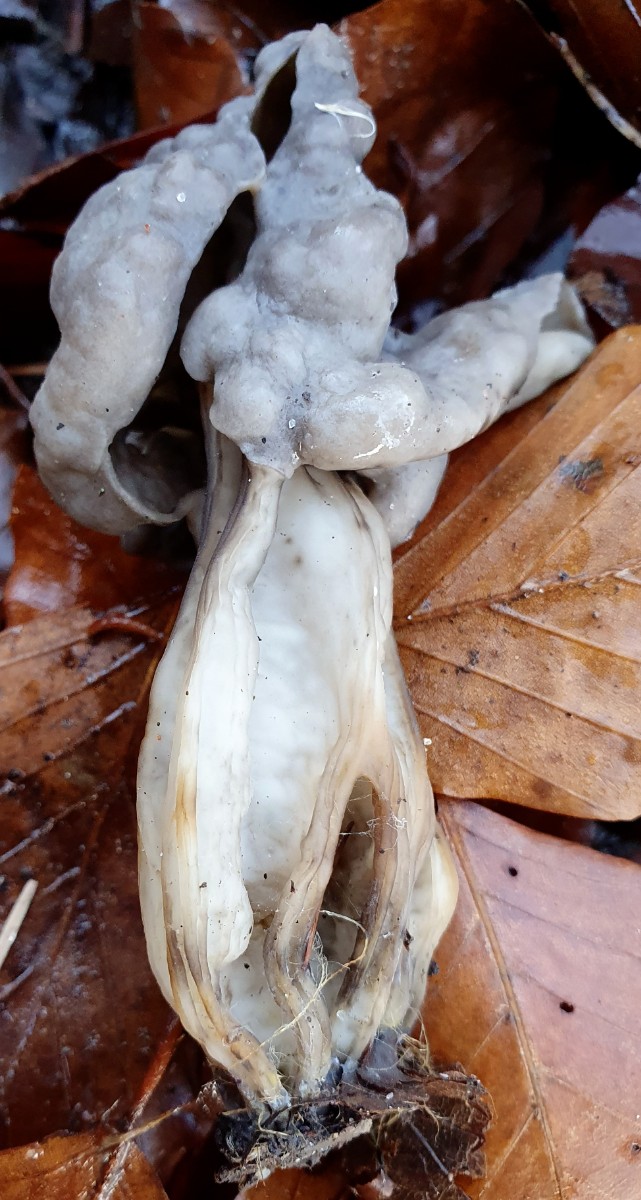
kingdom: Fungi
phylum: Ascomycota
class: Pezizomycetes
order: Pezizales
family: Helvellaceae
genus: Helvella
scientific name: Helvella lacunosa
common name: grubet foldhat
